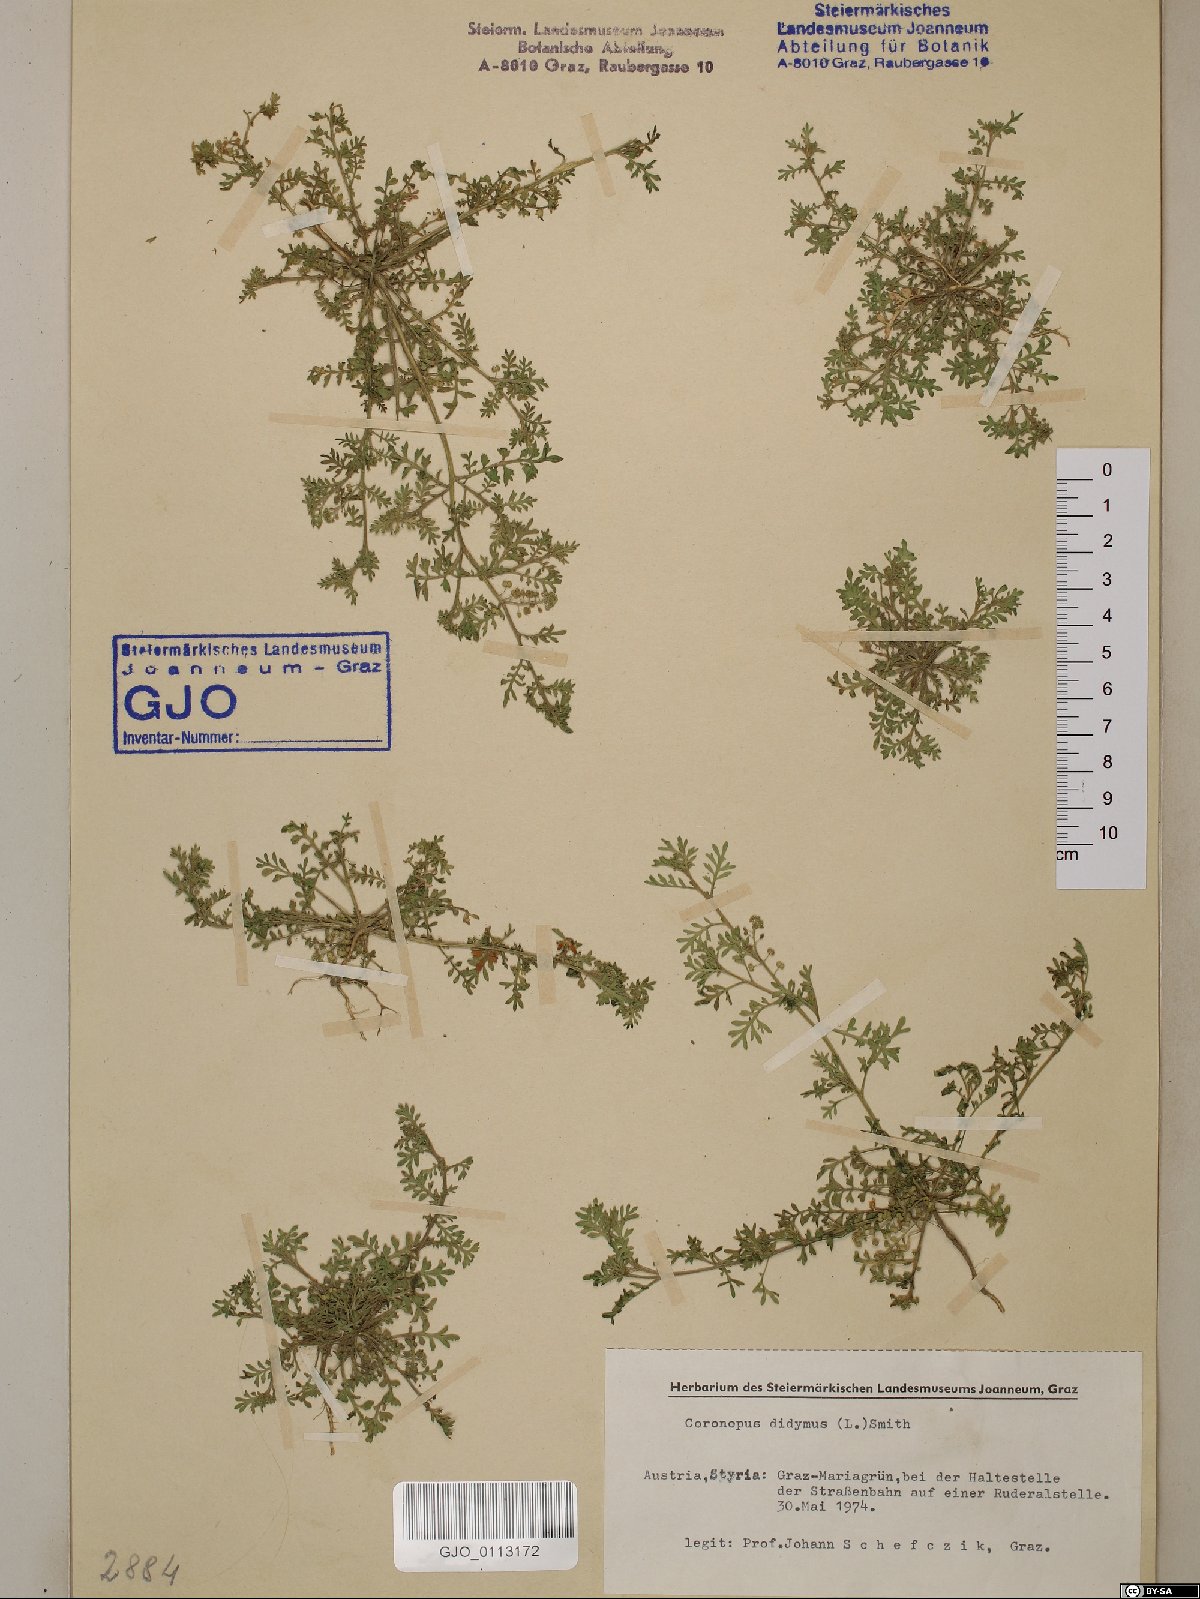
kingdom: Plantae
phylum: Tracheophyta
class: Magnoliopsida
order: Brassicales
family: Brassicaceae
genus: Lepidium
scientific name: Lepidium didymum
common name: Lesser swinecress
